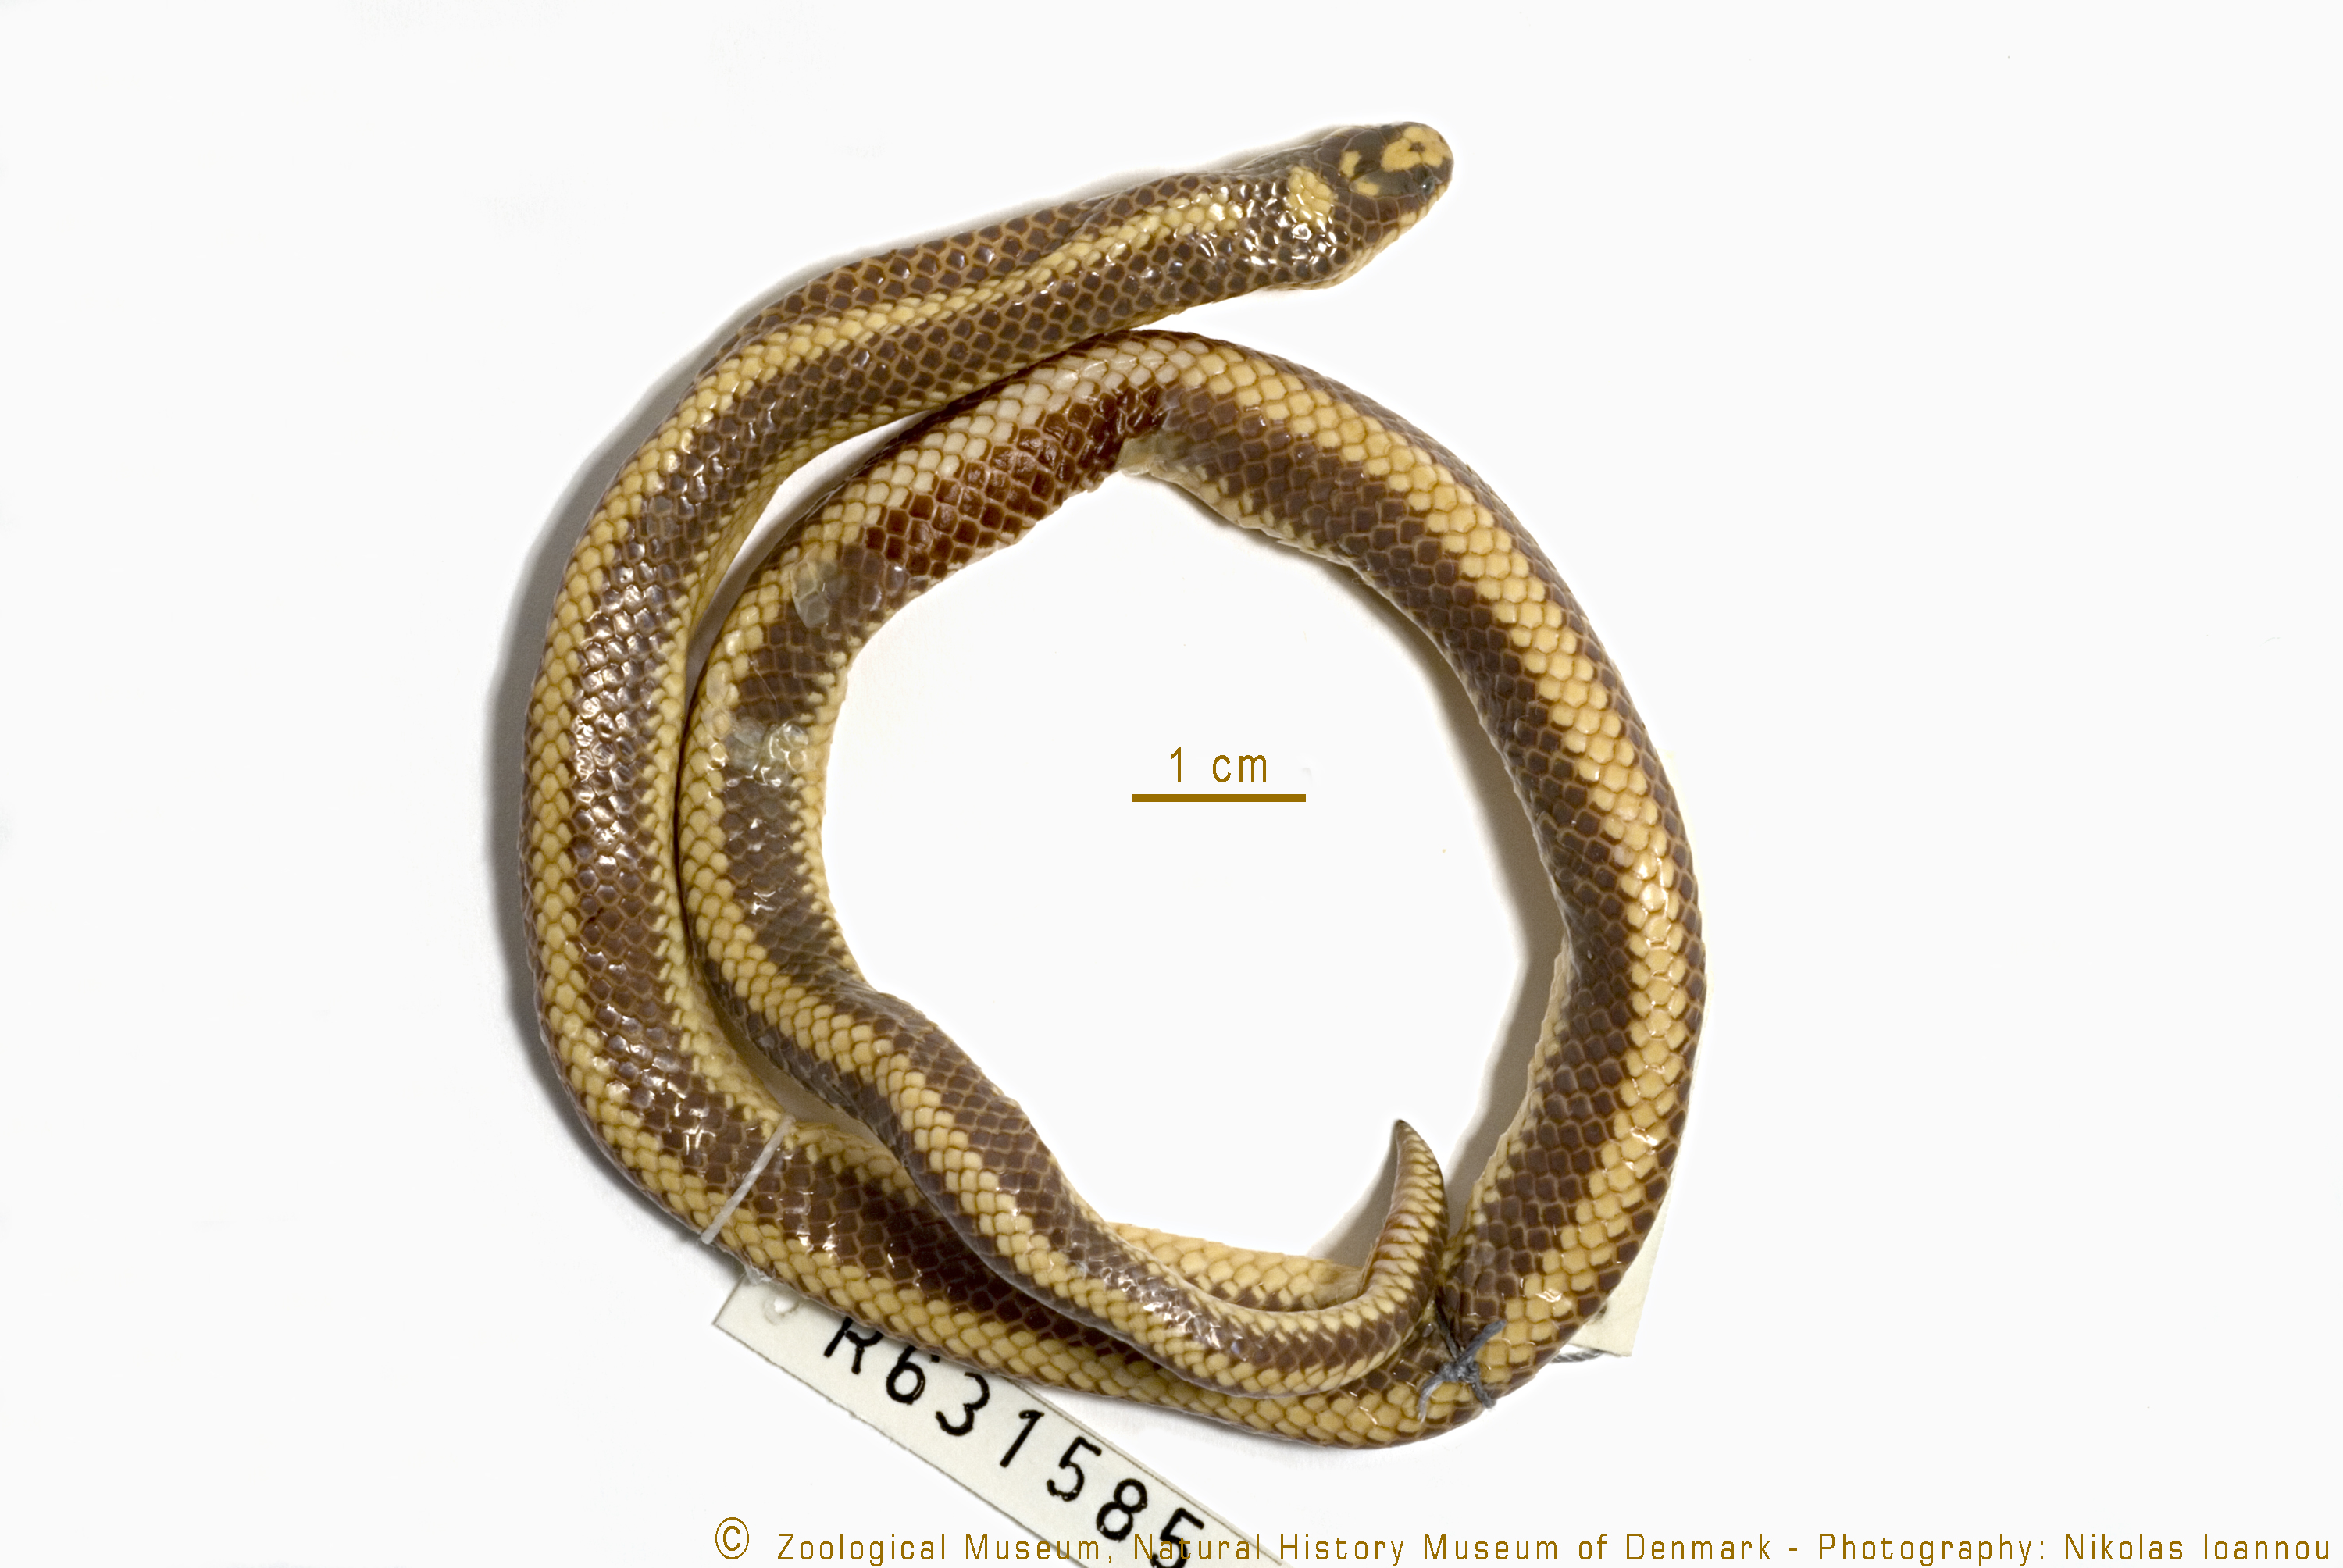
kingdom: Animalia
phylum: Chordata
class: Squamata
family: Atractaspididae
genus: Micrelaps
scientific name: Micrelaps bicoloratus
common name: Kenya two-headed snake
